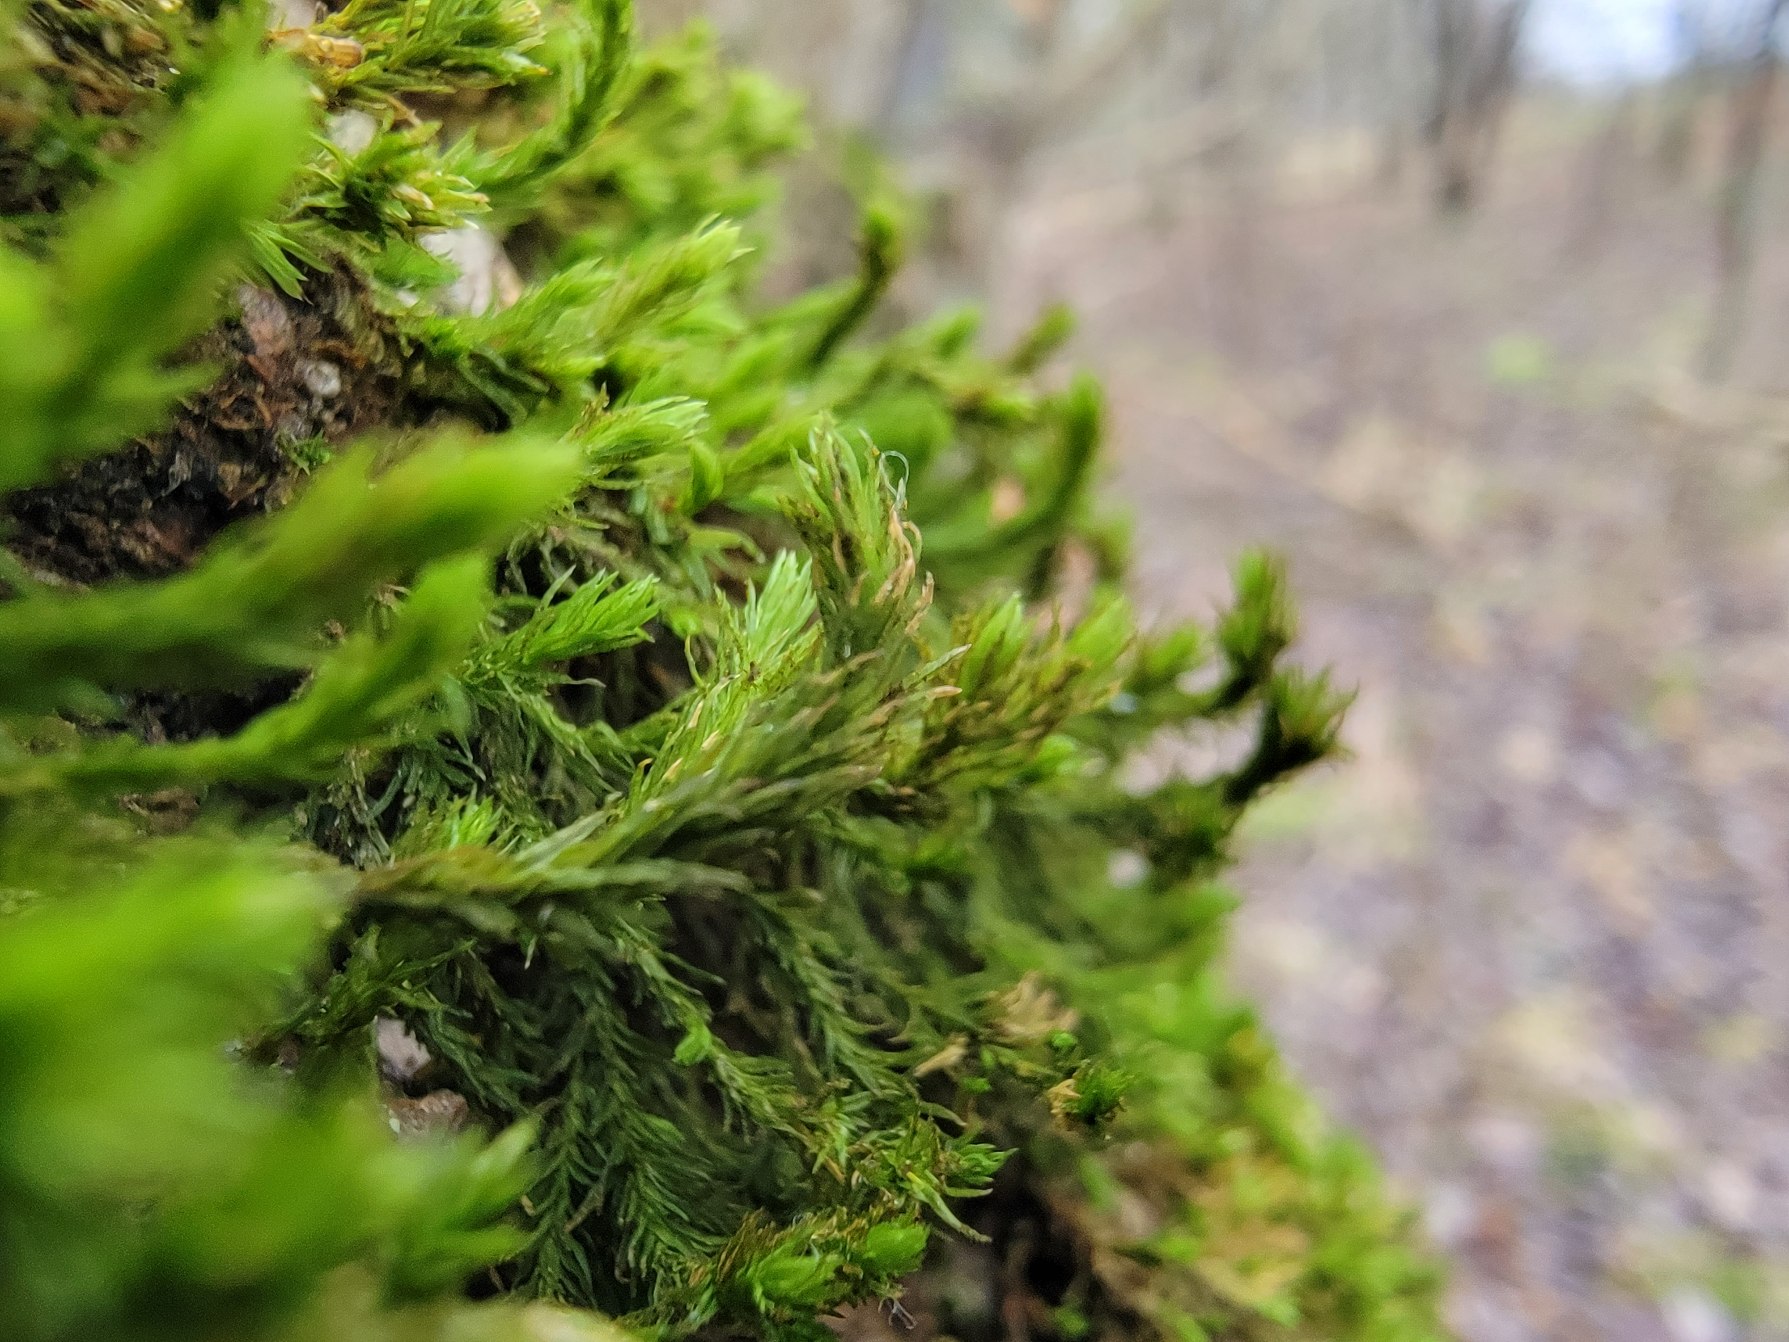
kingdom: Plantae
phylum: Bryophyta
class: Bryopsida
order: Orthotrichales
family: Orthotrichaceae
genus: Pulvigera
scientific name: Pulvigera lyellii
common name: Stor furehætte
